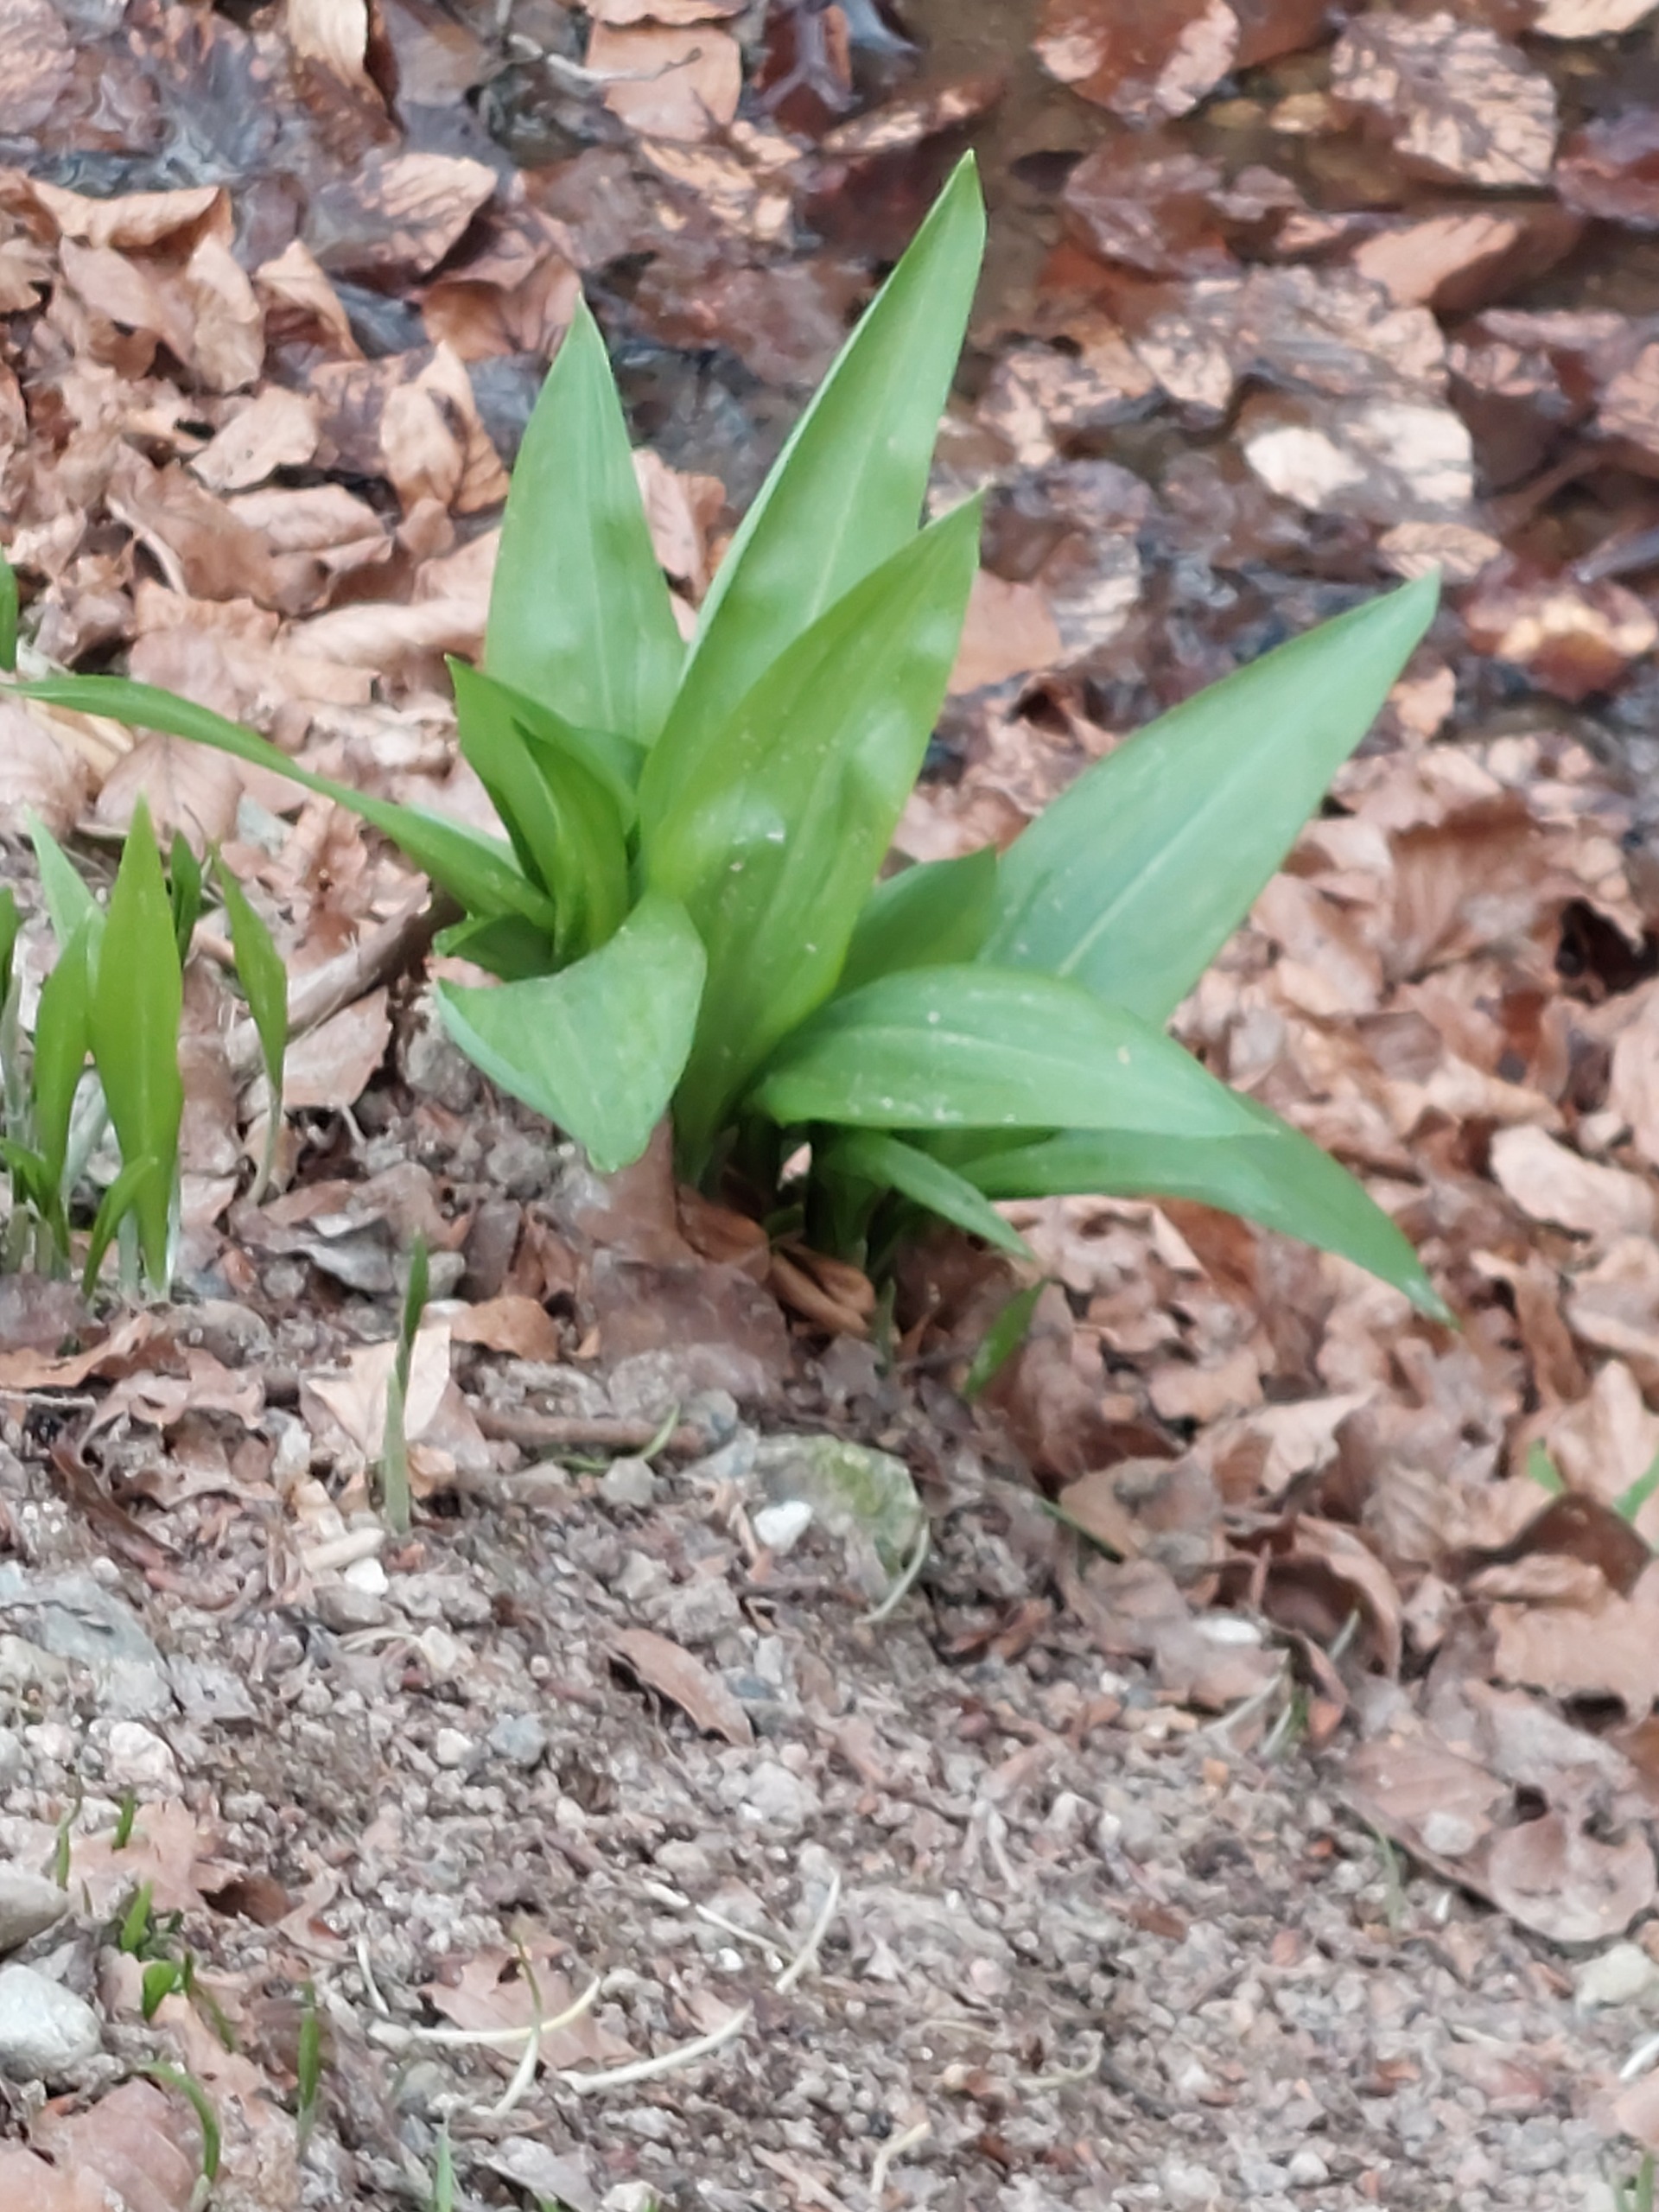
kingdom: Plantae
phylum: Tracheophyta
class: Liliopsida
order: Asparagales
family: Amaryllidaceae
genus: Allium
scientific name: Allium ursinum
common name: Rams-løg
